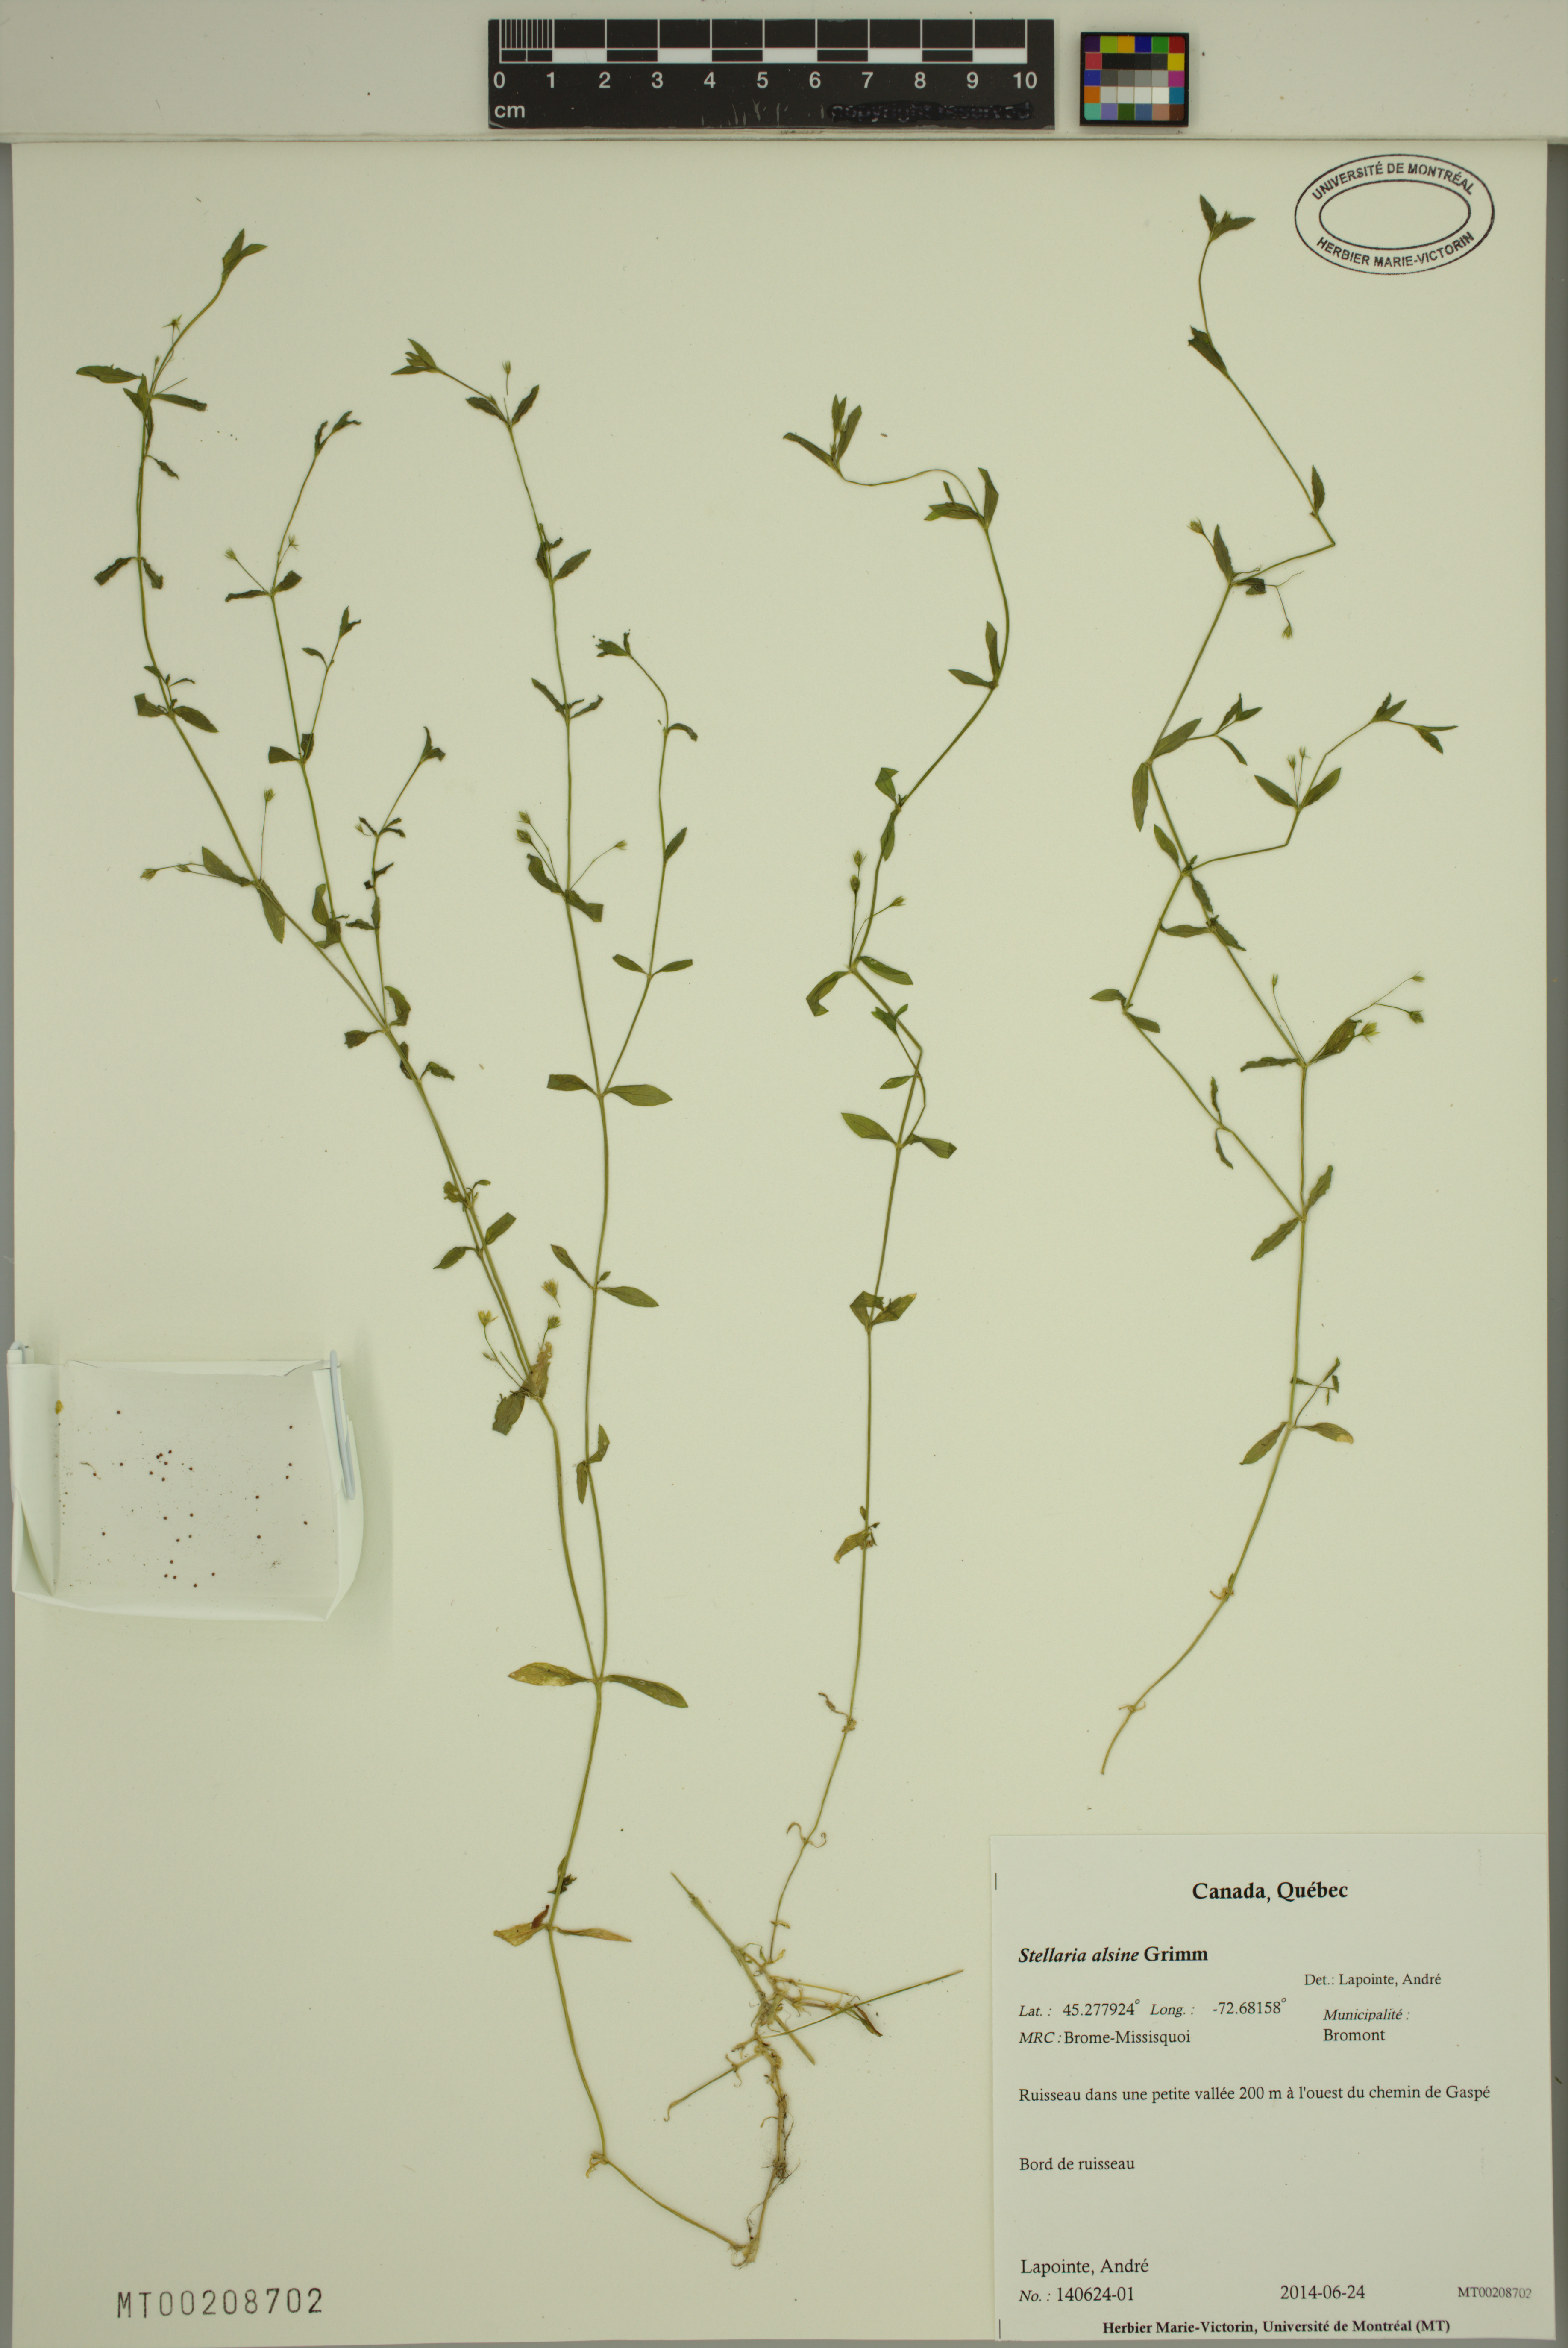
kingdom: Plantae
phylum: Tracheophyta
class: Magnoliopsida
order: Caryophyllales
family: Caryophyllaceae
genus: Stellaria
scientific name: Stellaria alsine
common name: Bog stitchwort
